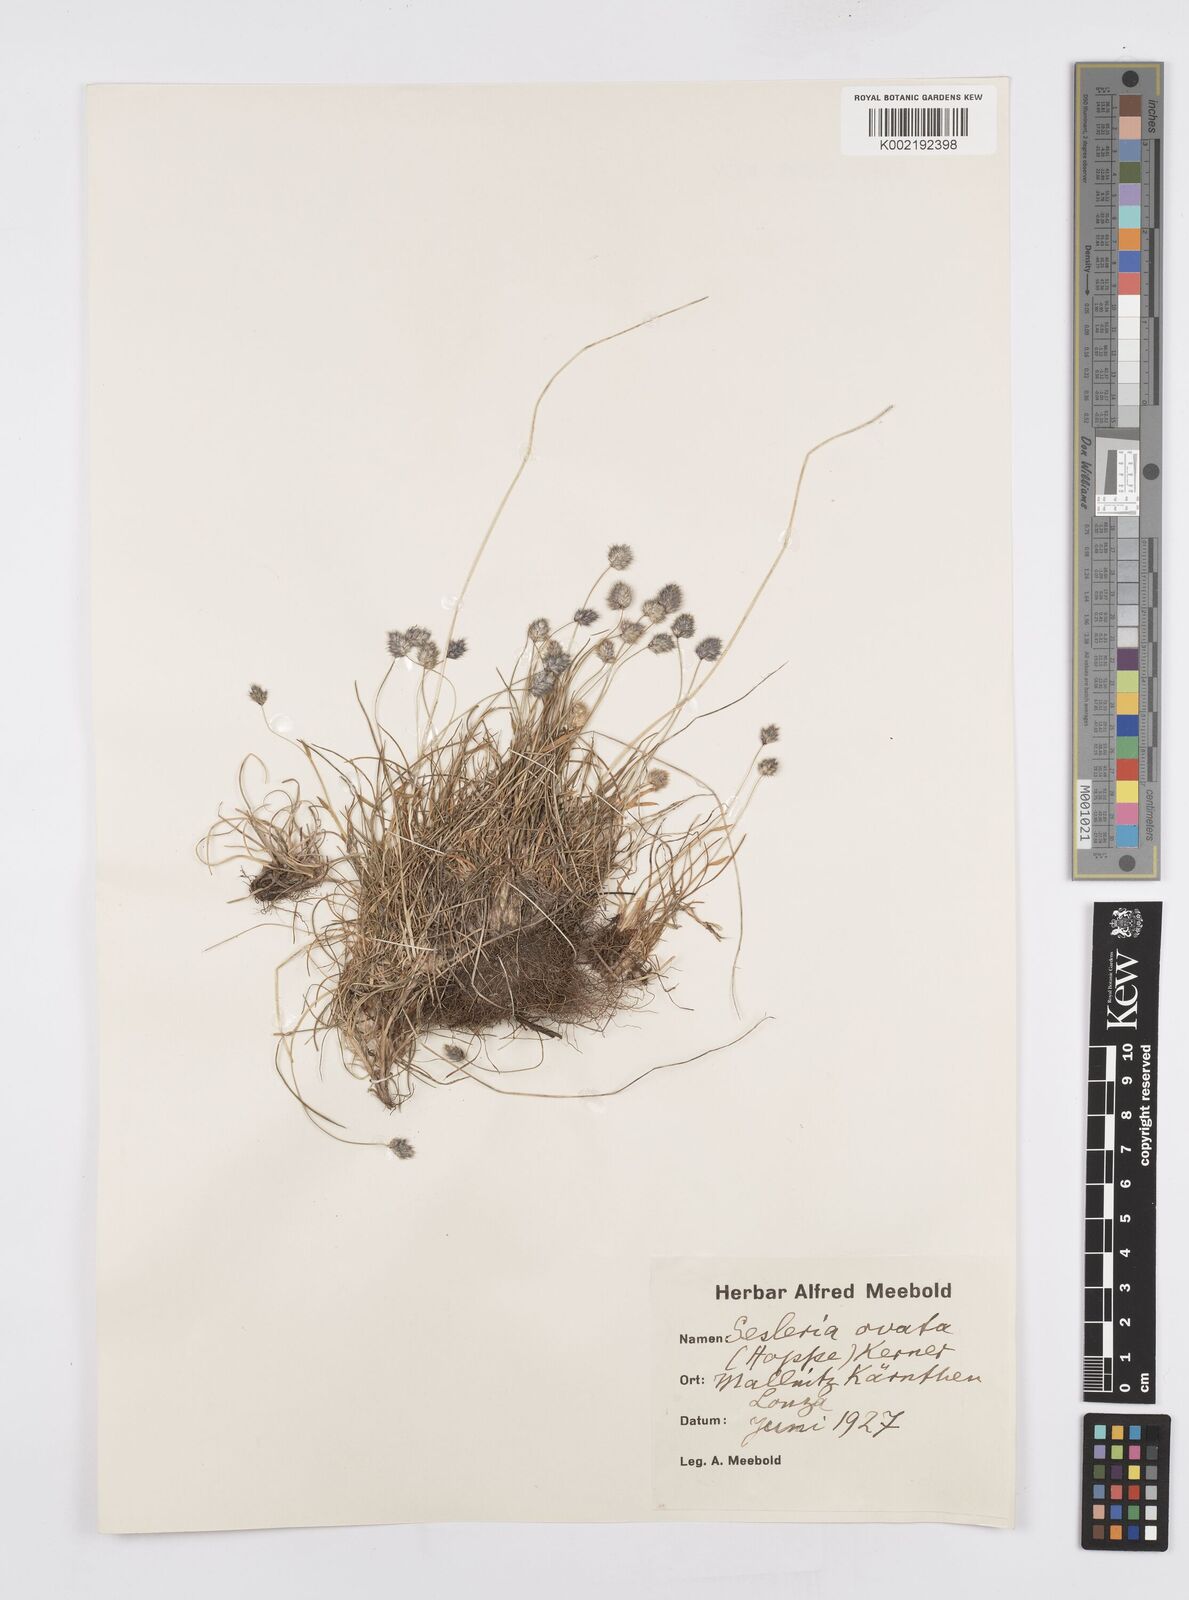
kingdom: Plantae
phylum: Tracheophyta
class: Liliopsida
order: Poales
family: Poaceae
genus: Psilathera
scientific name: Psilathera ovata
